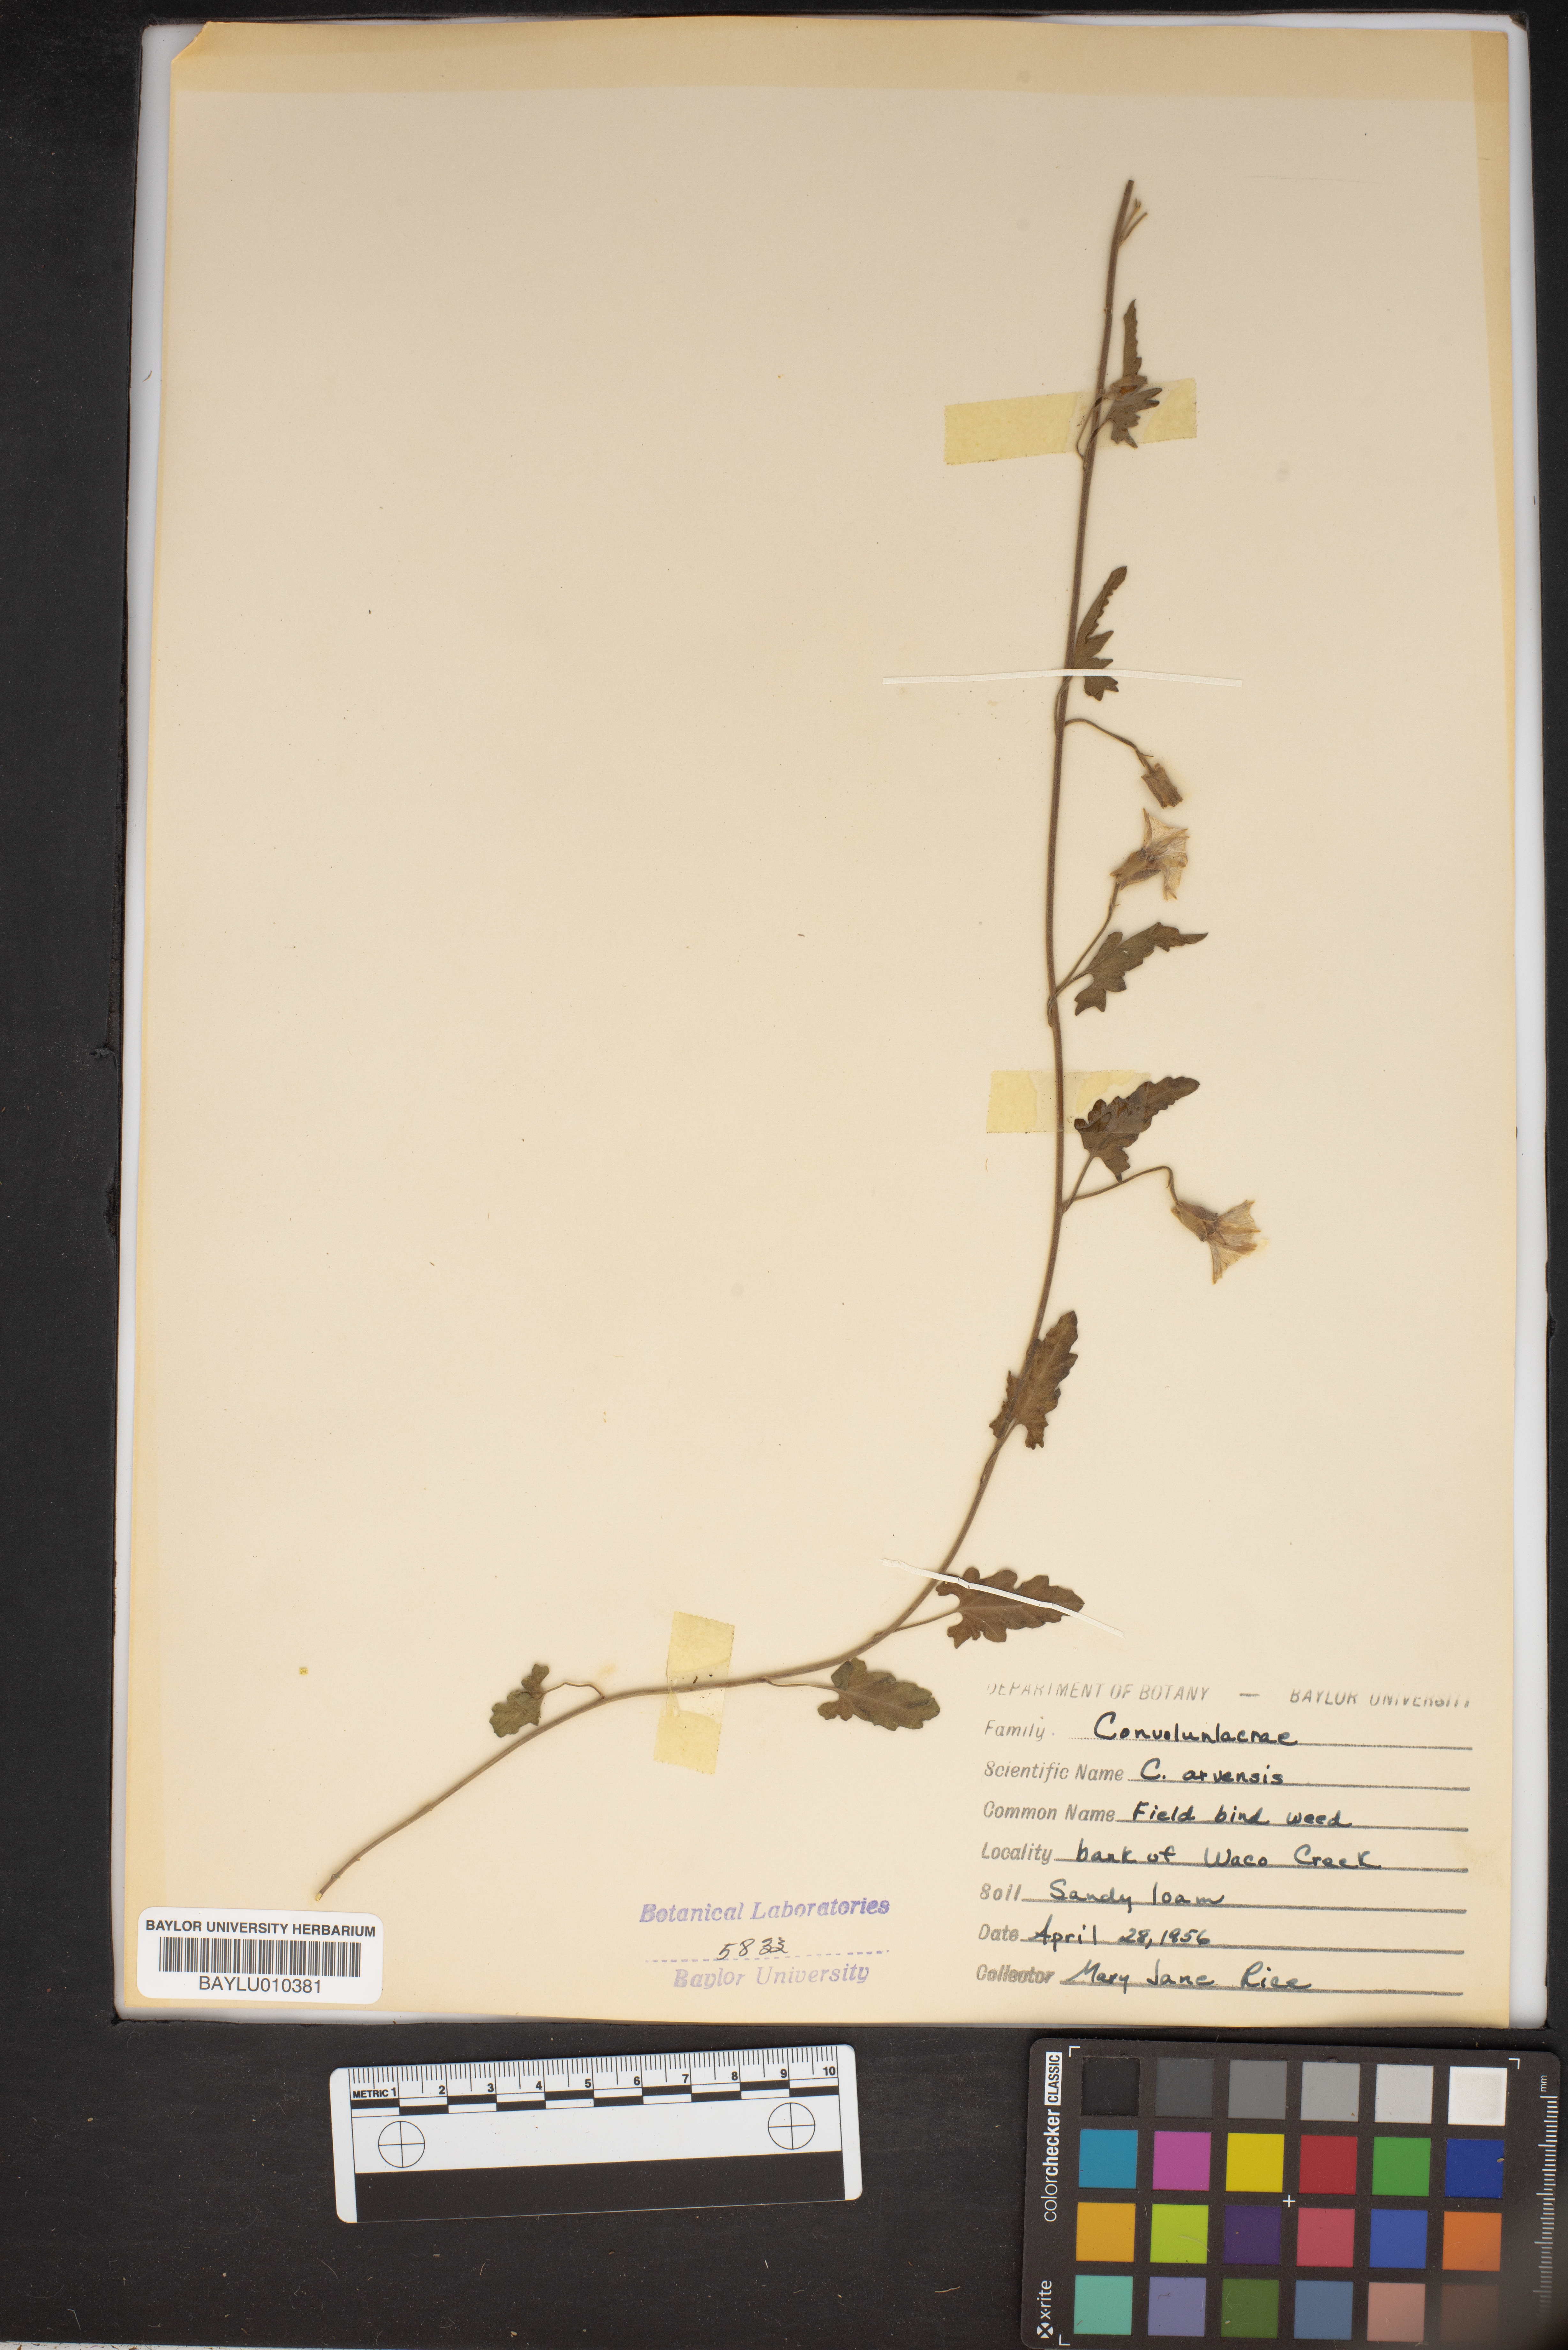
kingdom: Plantae
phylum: Tracheophyta
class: Magnoliopsida
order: Solanales
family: Convolvulaceae
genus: Convolvulus
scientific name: Convolvulus arvensis
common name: Field bindweed
